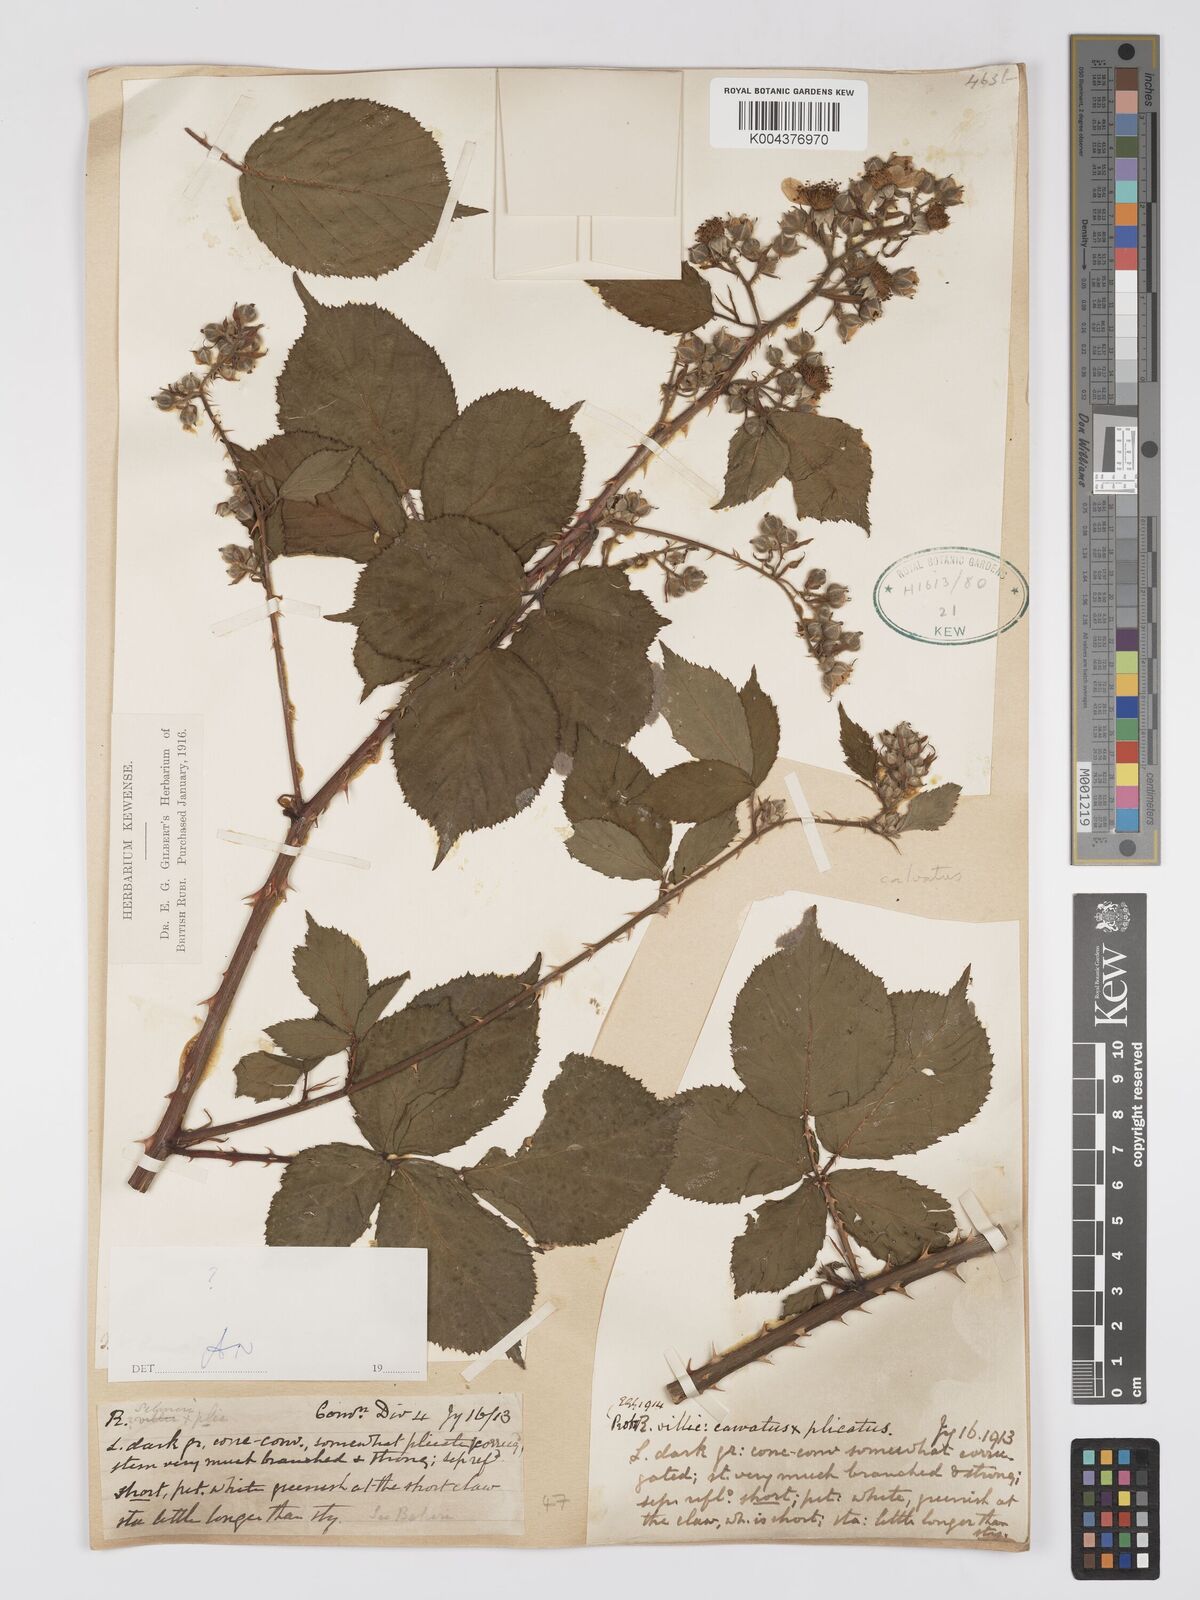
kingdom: Plantae
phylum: Tracheophyta
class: Magnoliopsida
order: Rosales
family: Rosaceae
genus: Rubus
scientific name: Rubus calvatus
